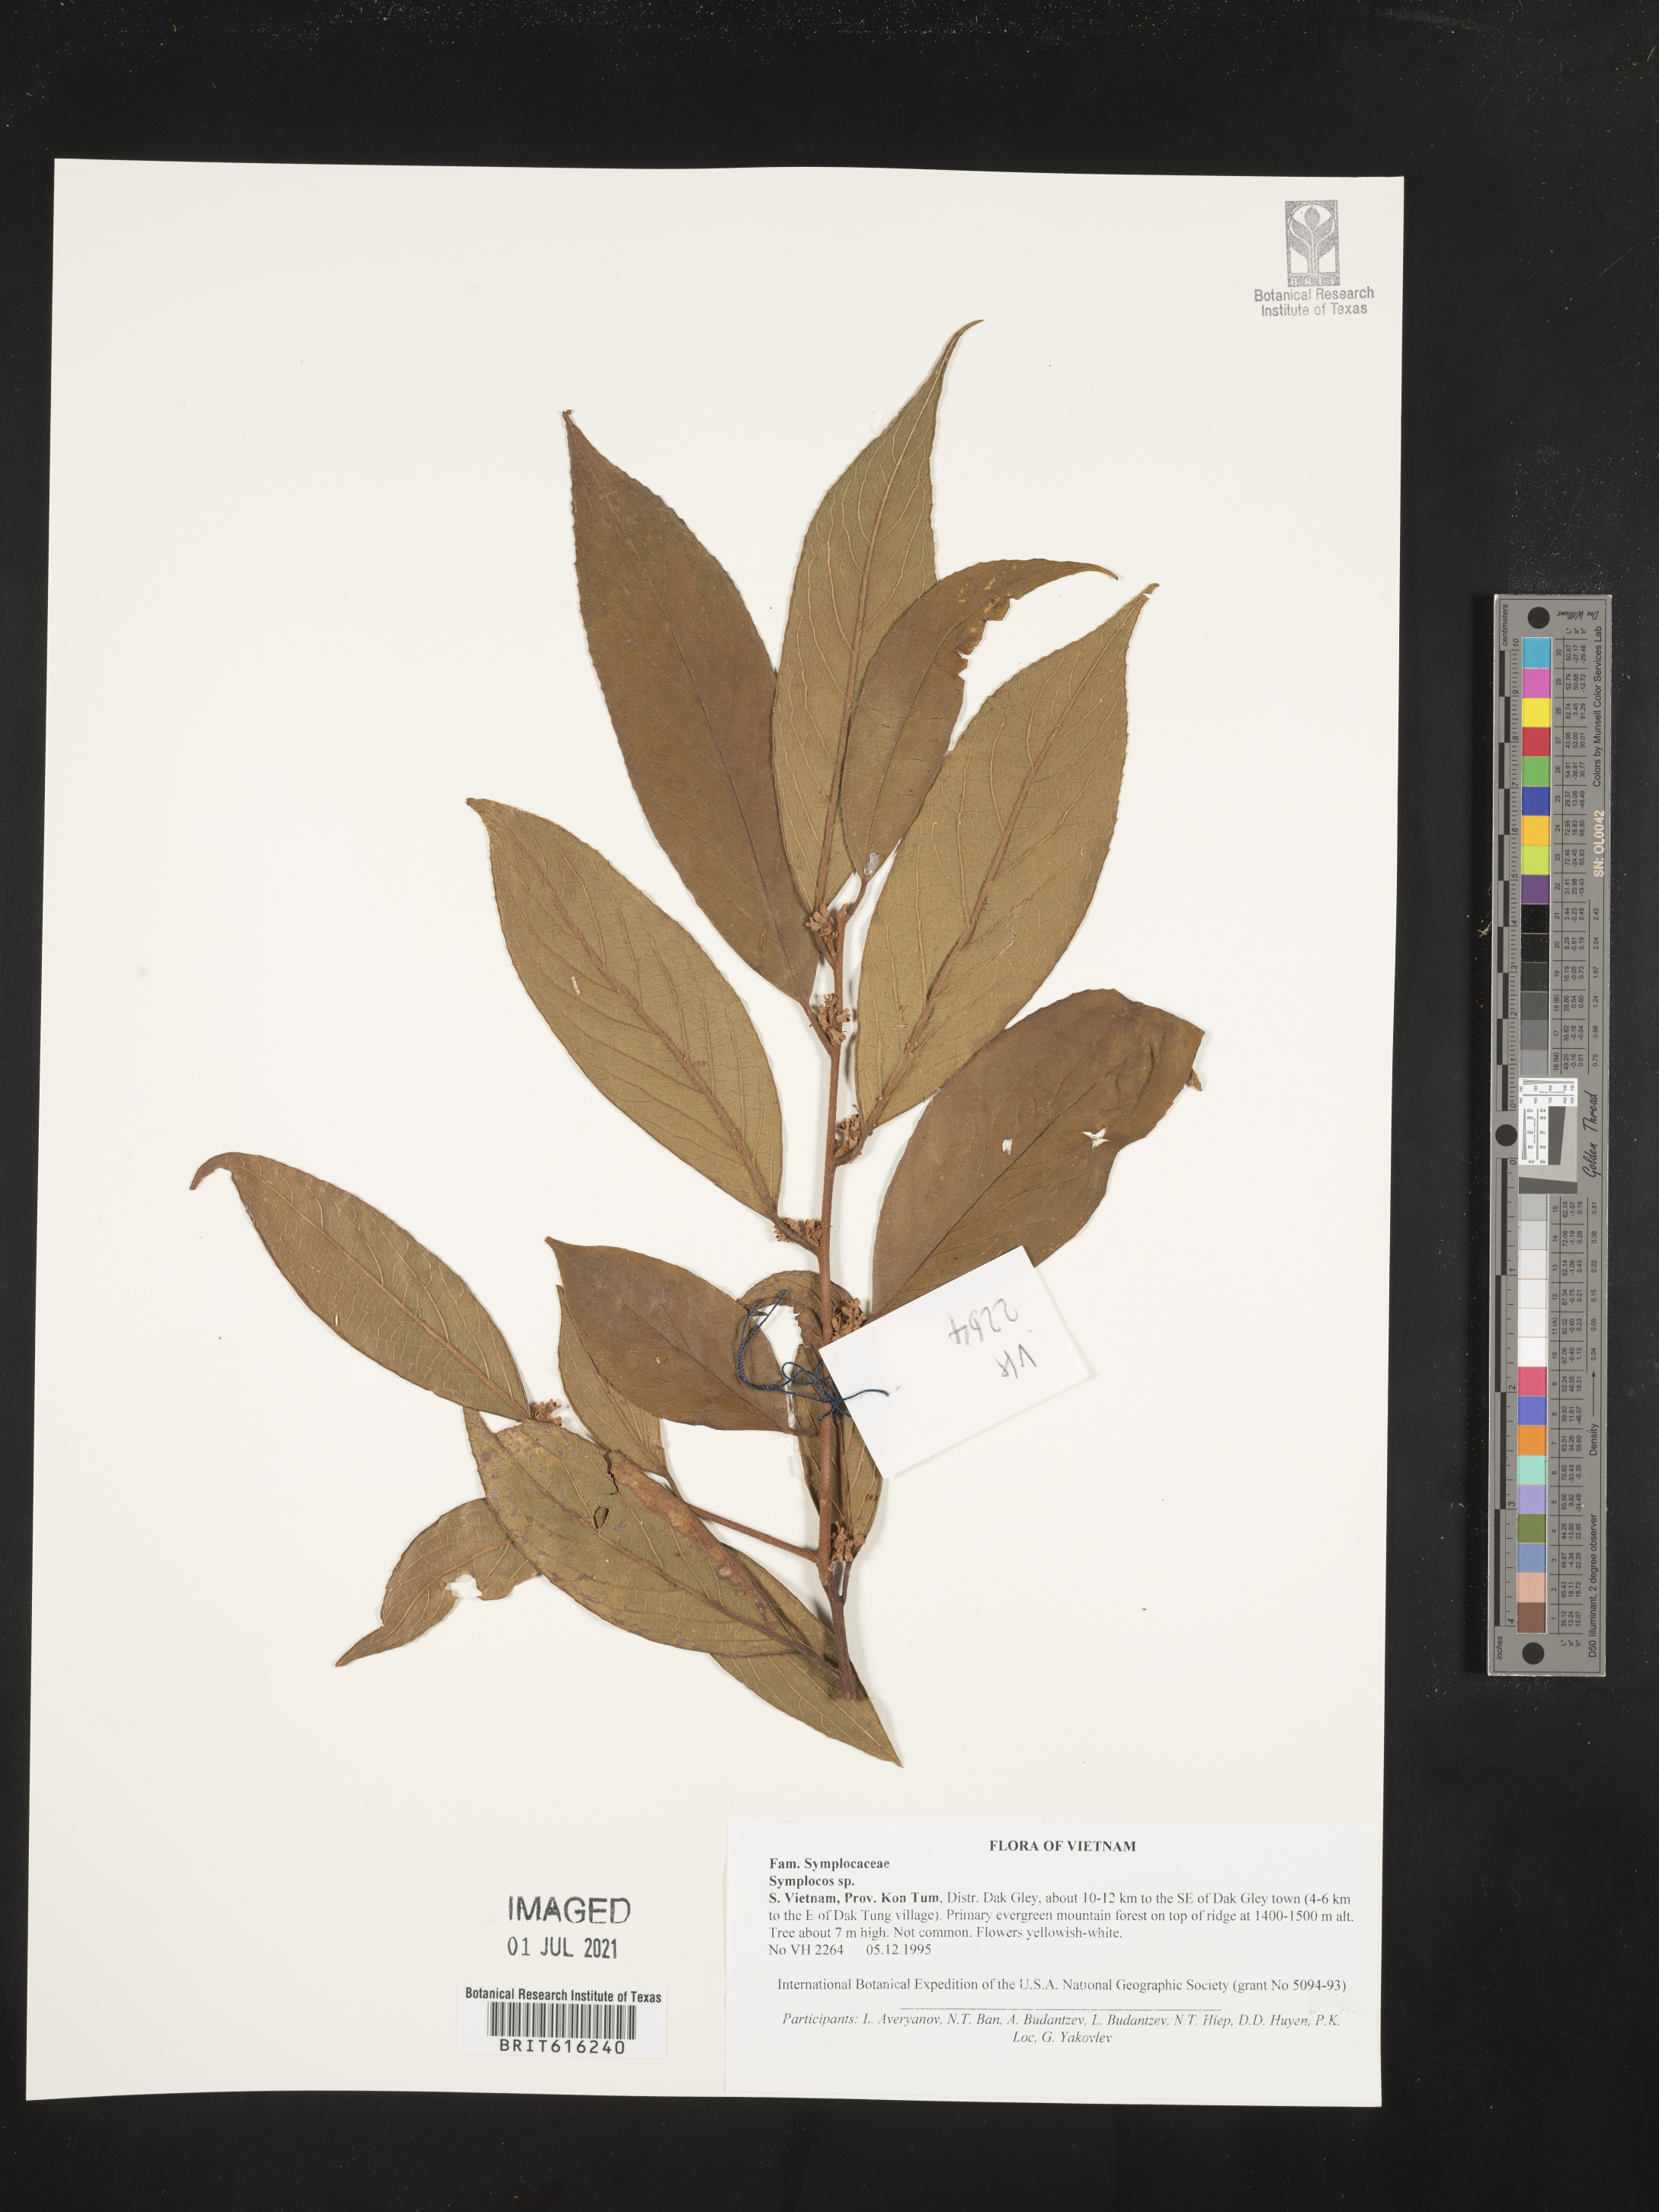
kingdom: Plantae
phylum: Tracheophyta
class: Magnoliopsida
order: Ericales
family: Symplocaceae
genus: Symplocos
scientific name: Symplocos
